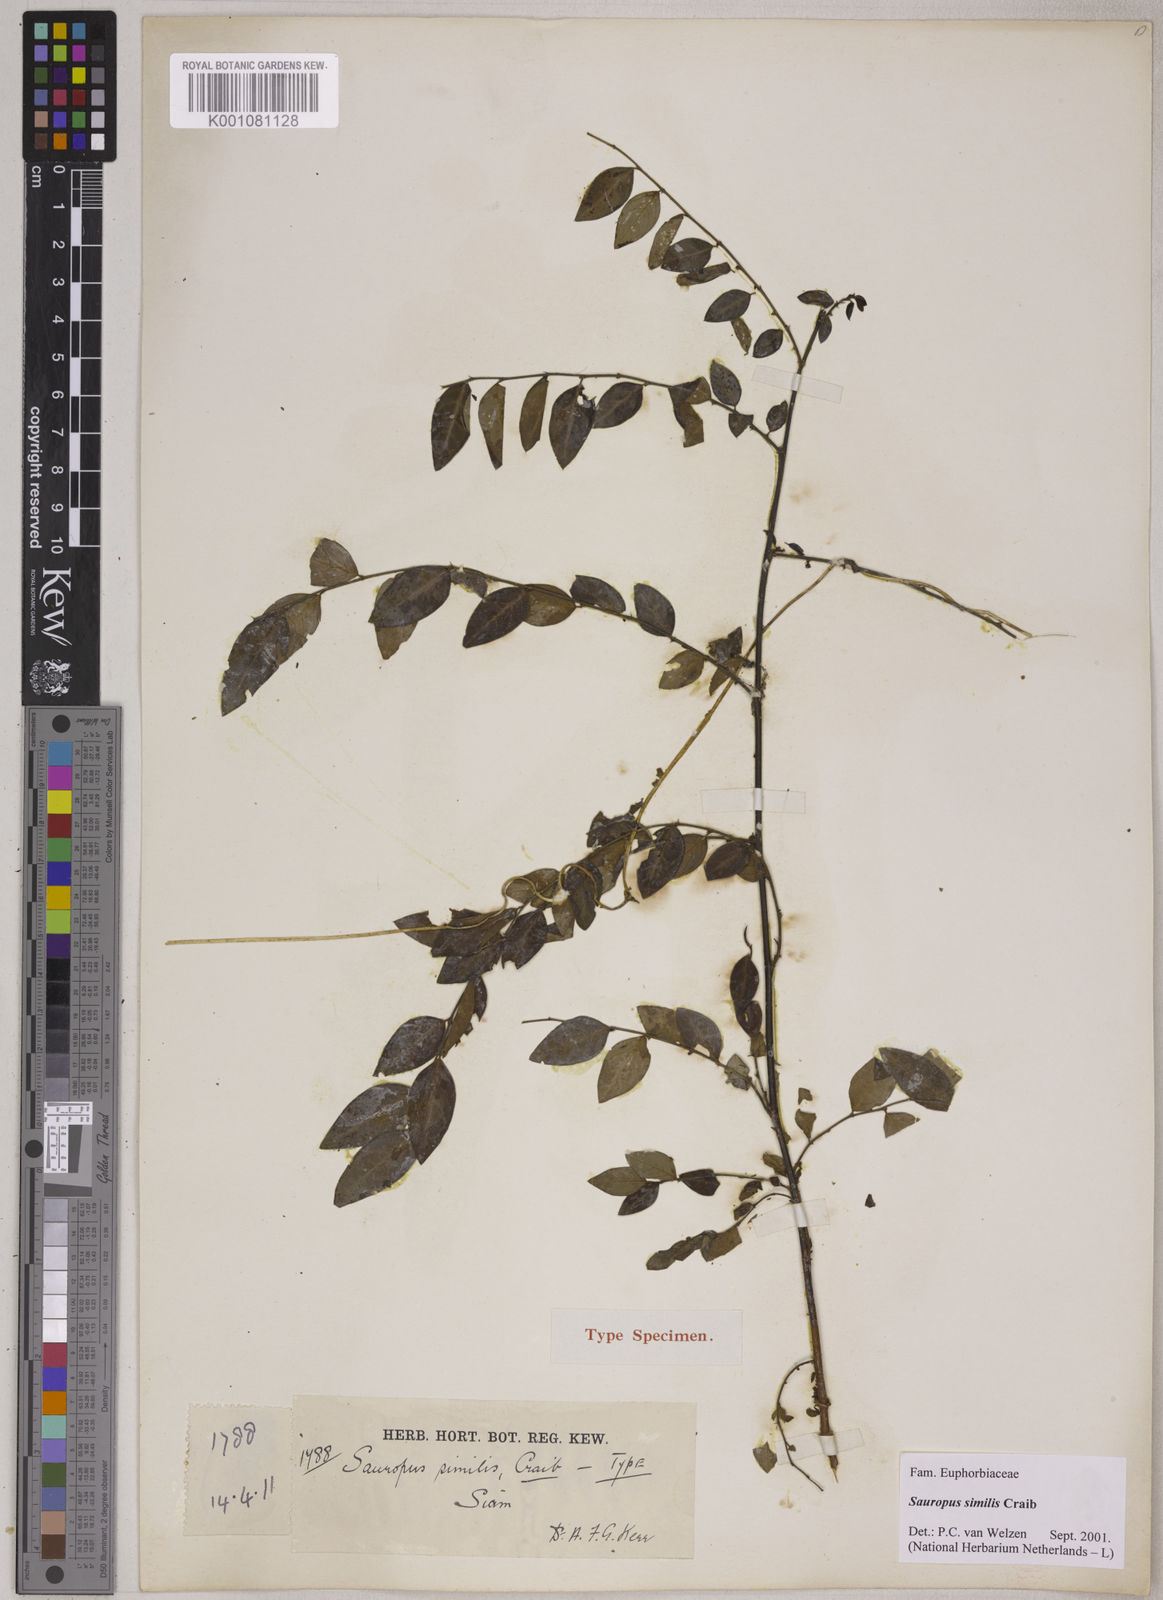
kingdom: Plantae
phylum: Tracheophyta
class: Magnoliopsida
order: Malpighiales
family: Phyllanthaceae
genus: Breynia
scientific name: Breynia similis
